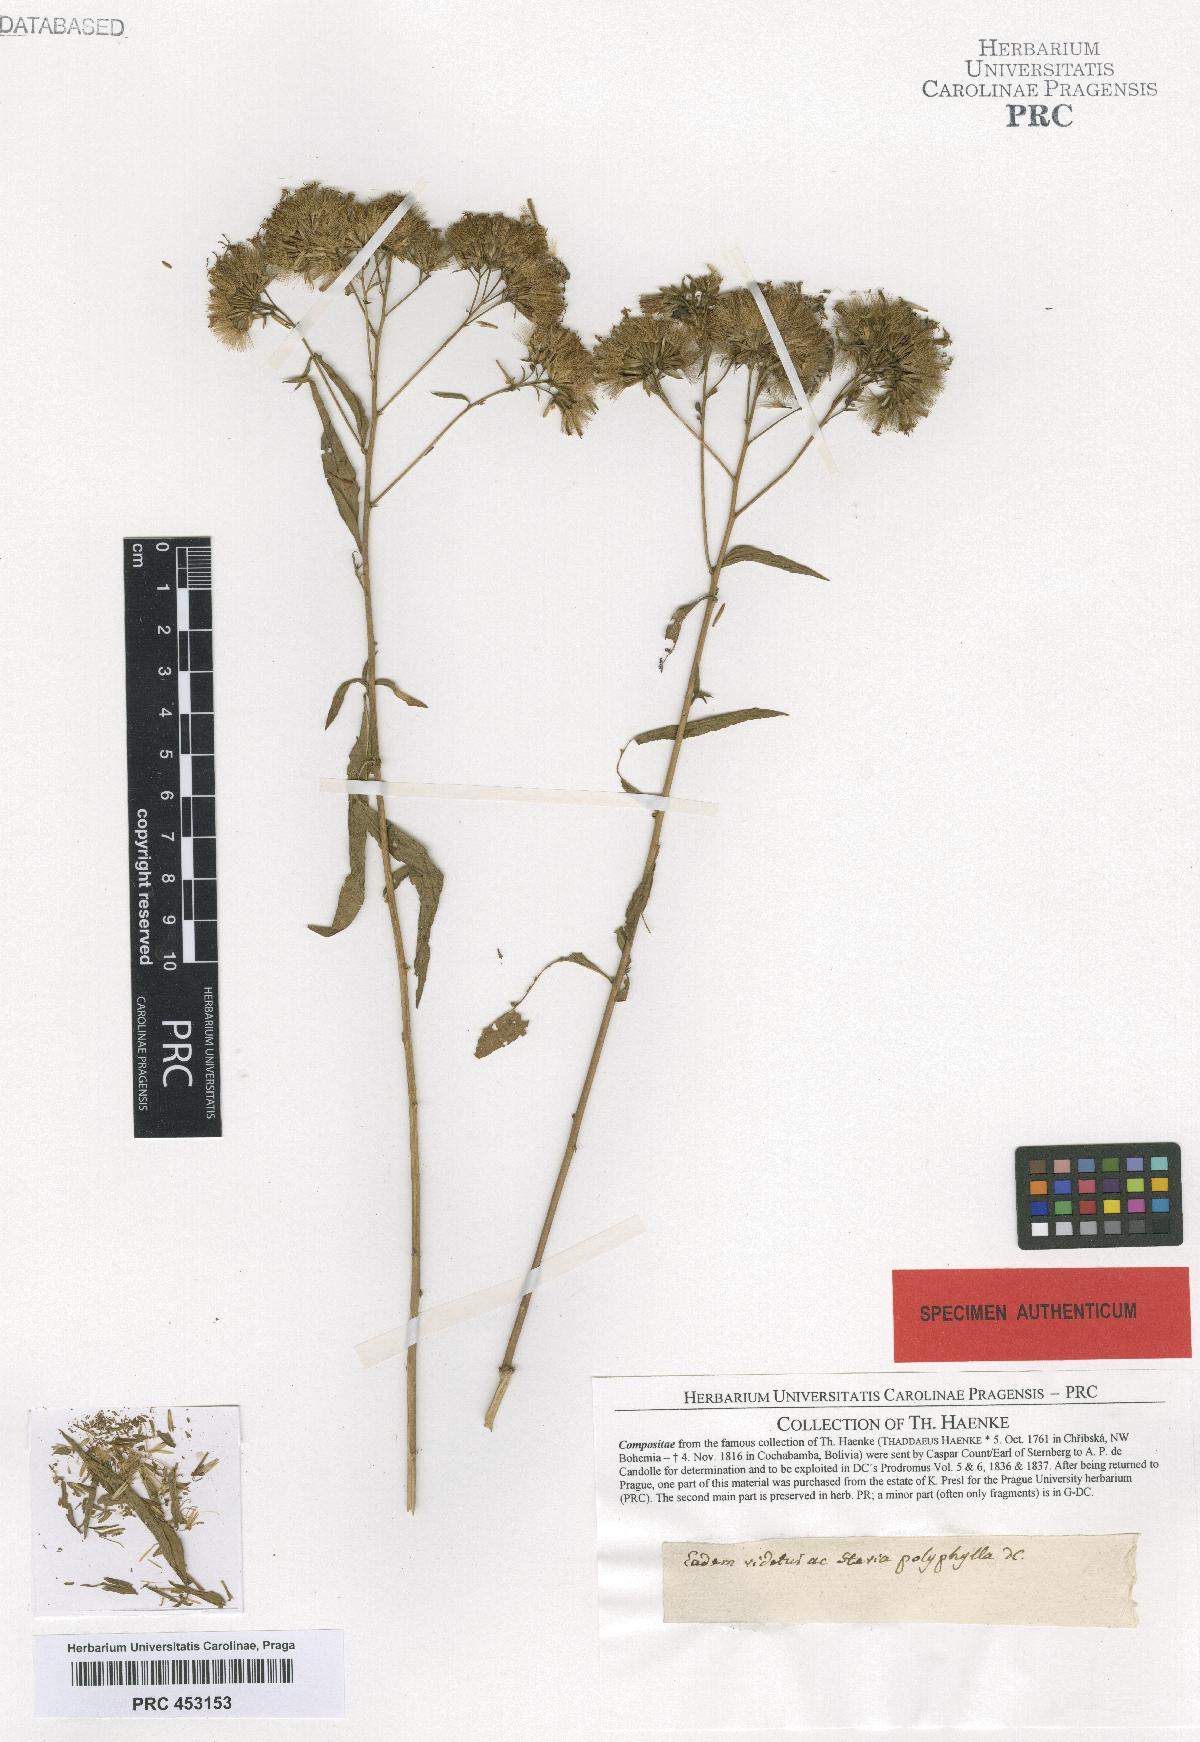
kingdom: Plantae
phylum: Tracheophyta
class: Magnoliopsida
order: Asterales
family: Asteraceae
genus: Stevia
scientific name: Stevia polyphylla
